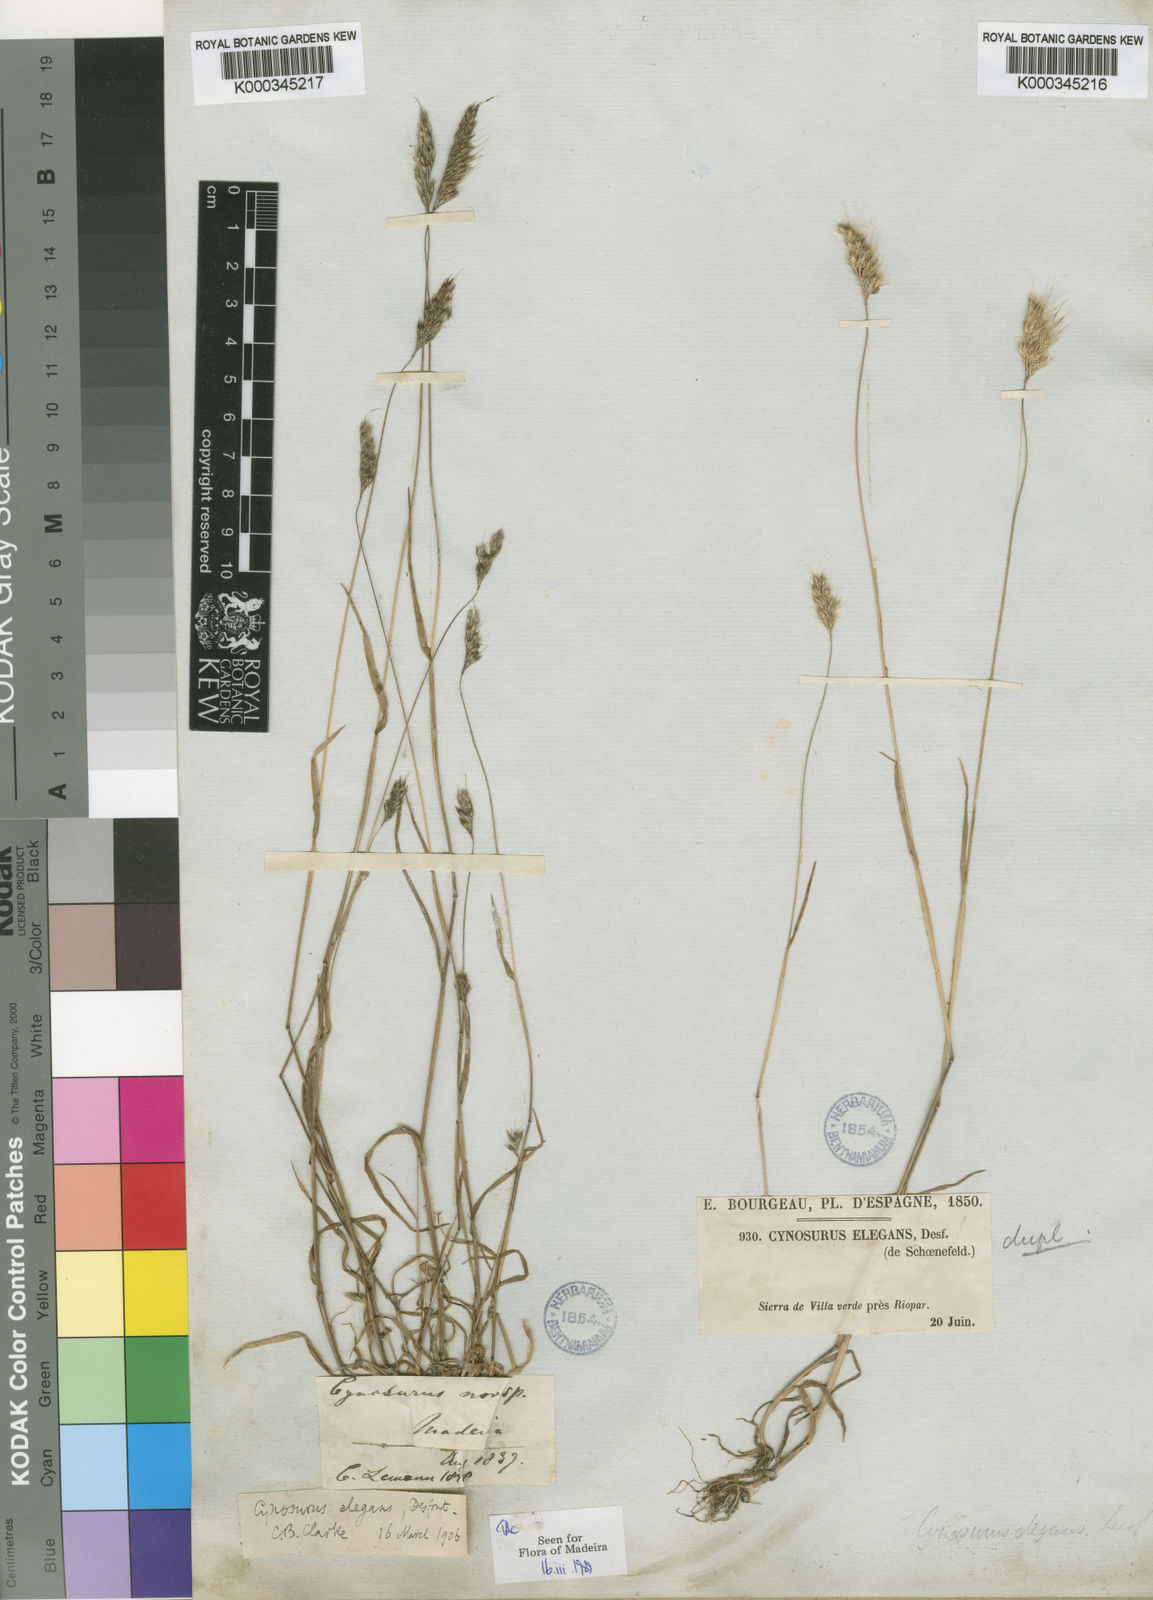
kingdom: Plantae
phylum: Tracheophyta
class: Liliopsida
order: Poales
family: Poaceae
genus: Cynosurus
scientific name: Cynosurus elegans
